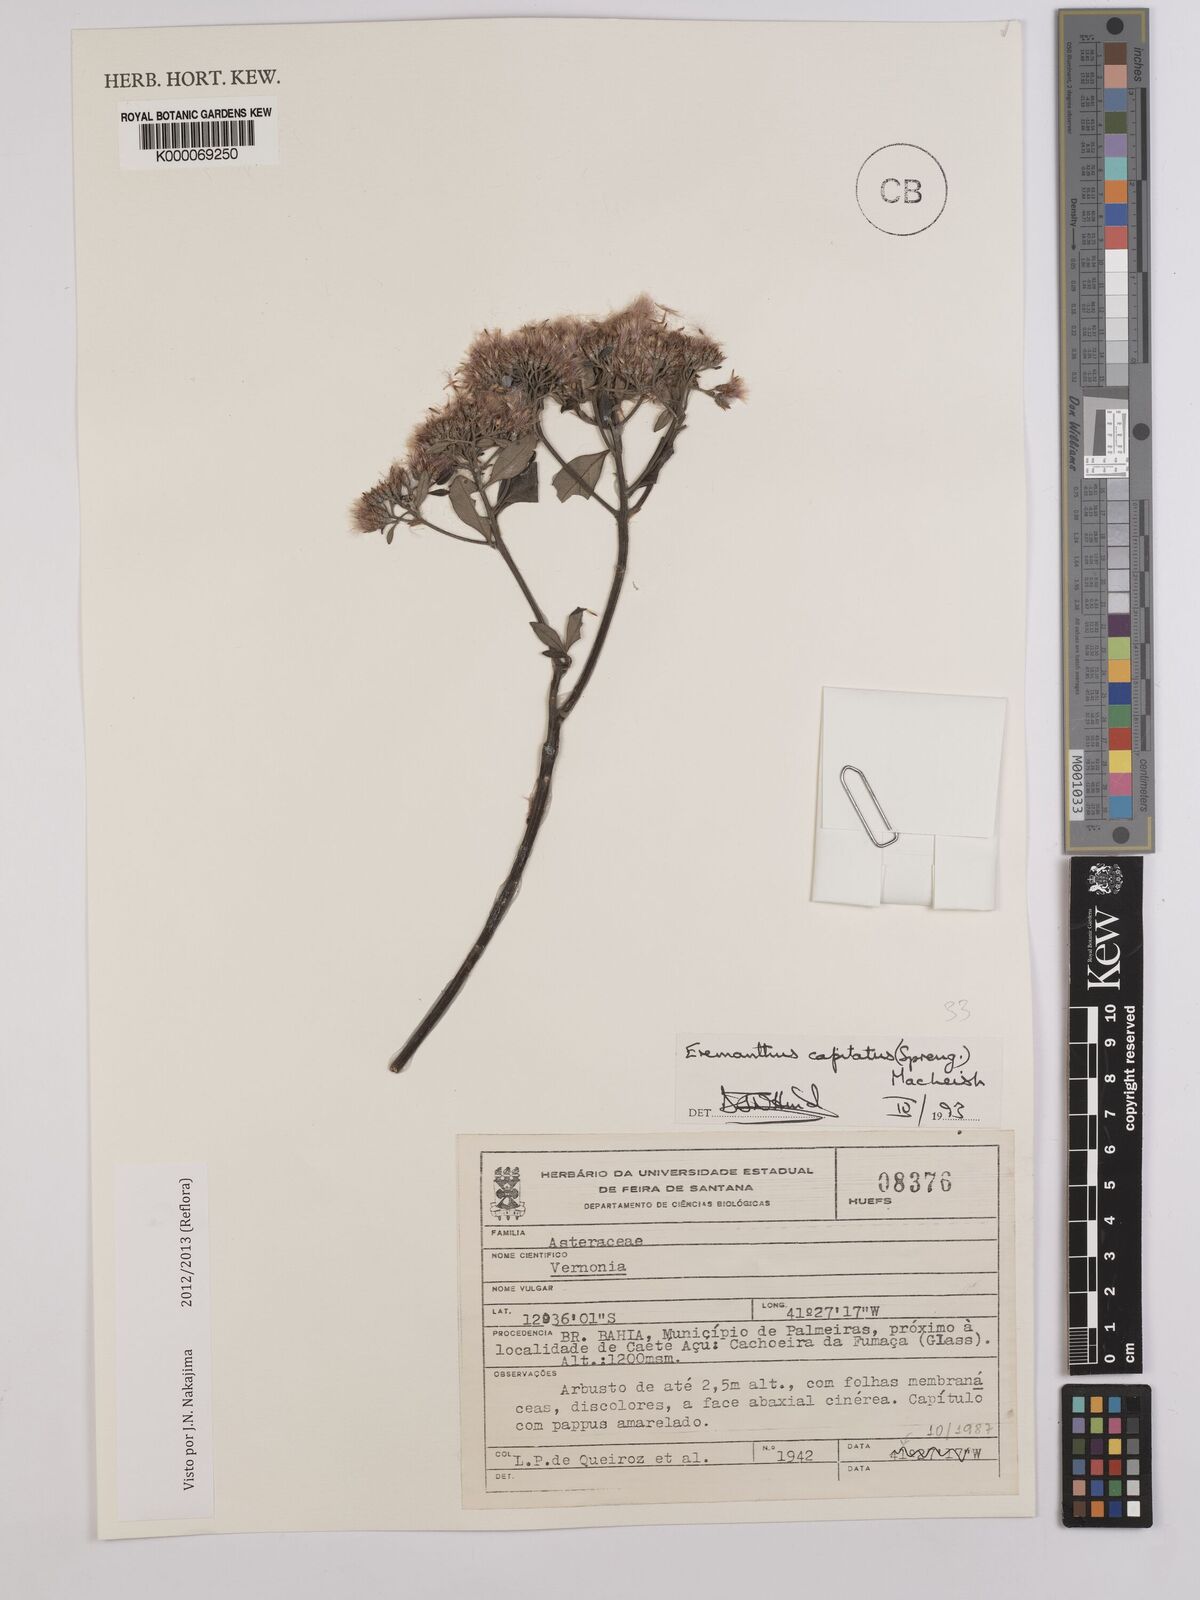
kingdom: Plantae
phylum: Tracheophyta
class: Magnoliopsida
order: Asterales
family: Asteraceae
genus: Eremanthus
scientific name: Eremanthus capitatus
